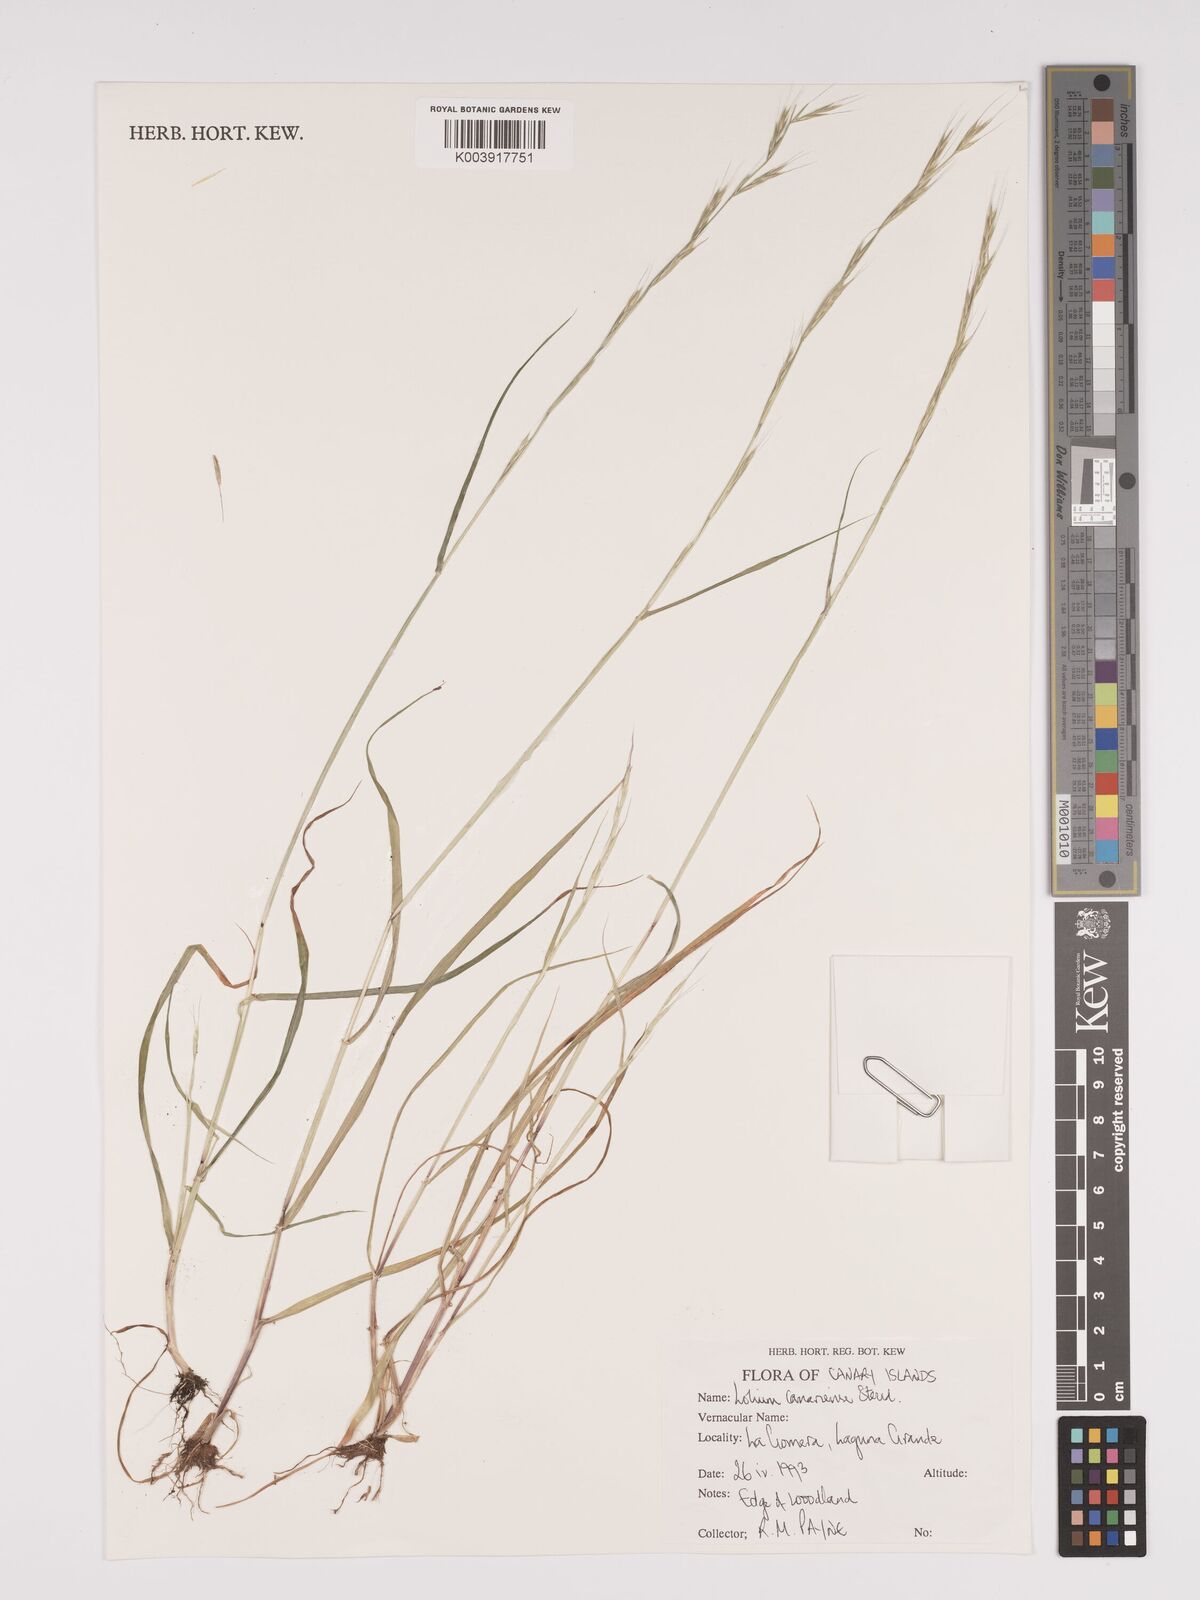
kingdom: Plantae
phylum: Tracheophyta
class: Liliopsida
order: Poales
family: Poaceae
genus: Lolium
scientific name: Lolium canariense
